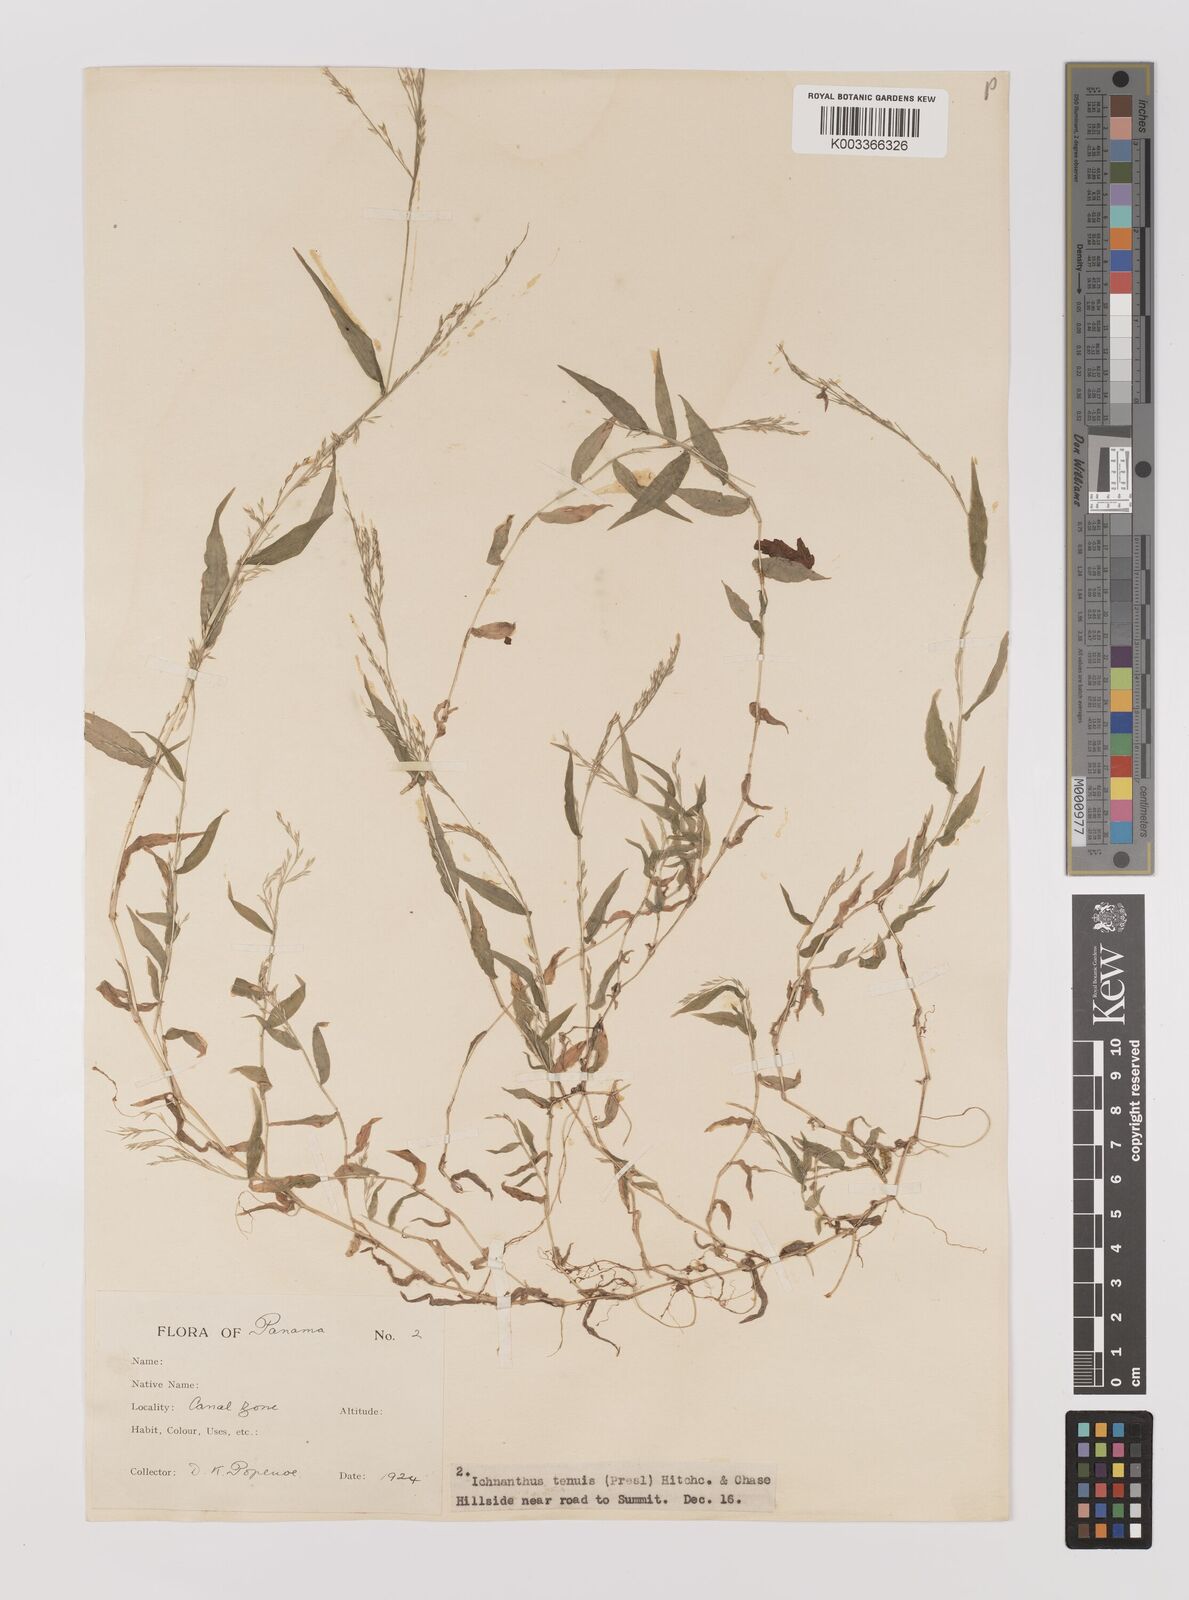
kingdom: Plantae
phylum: Tracheophyta
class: Liliopsida
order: Poales
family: Poaceae
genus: Ichnanthus
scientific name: Ichnanthus tenuis
